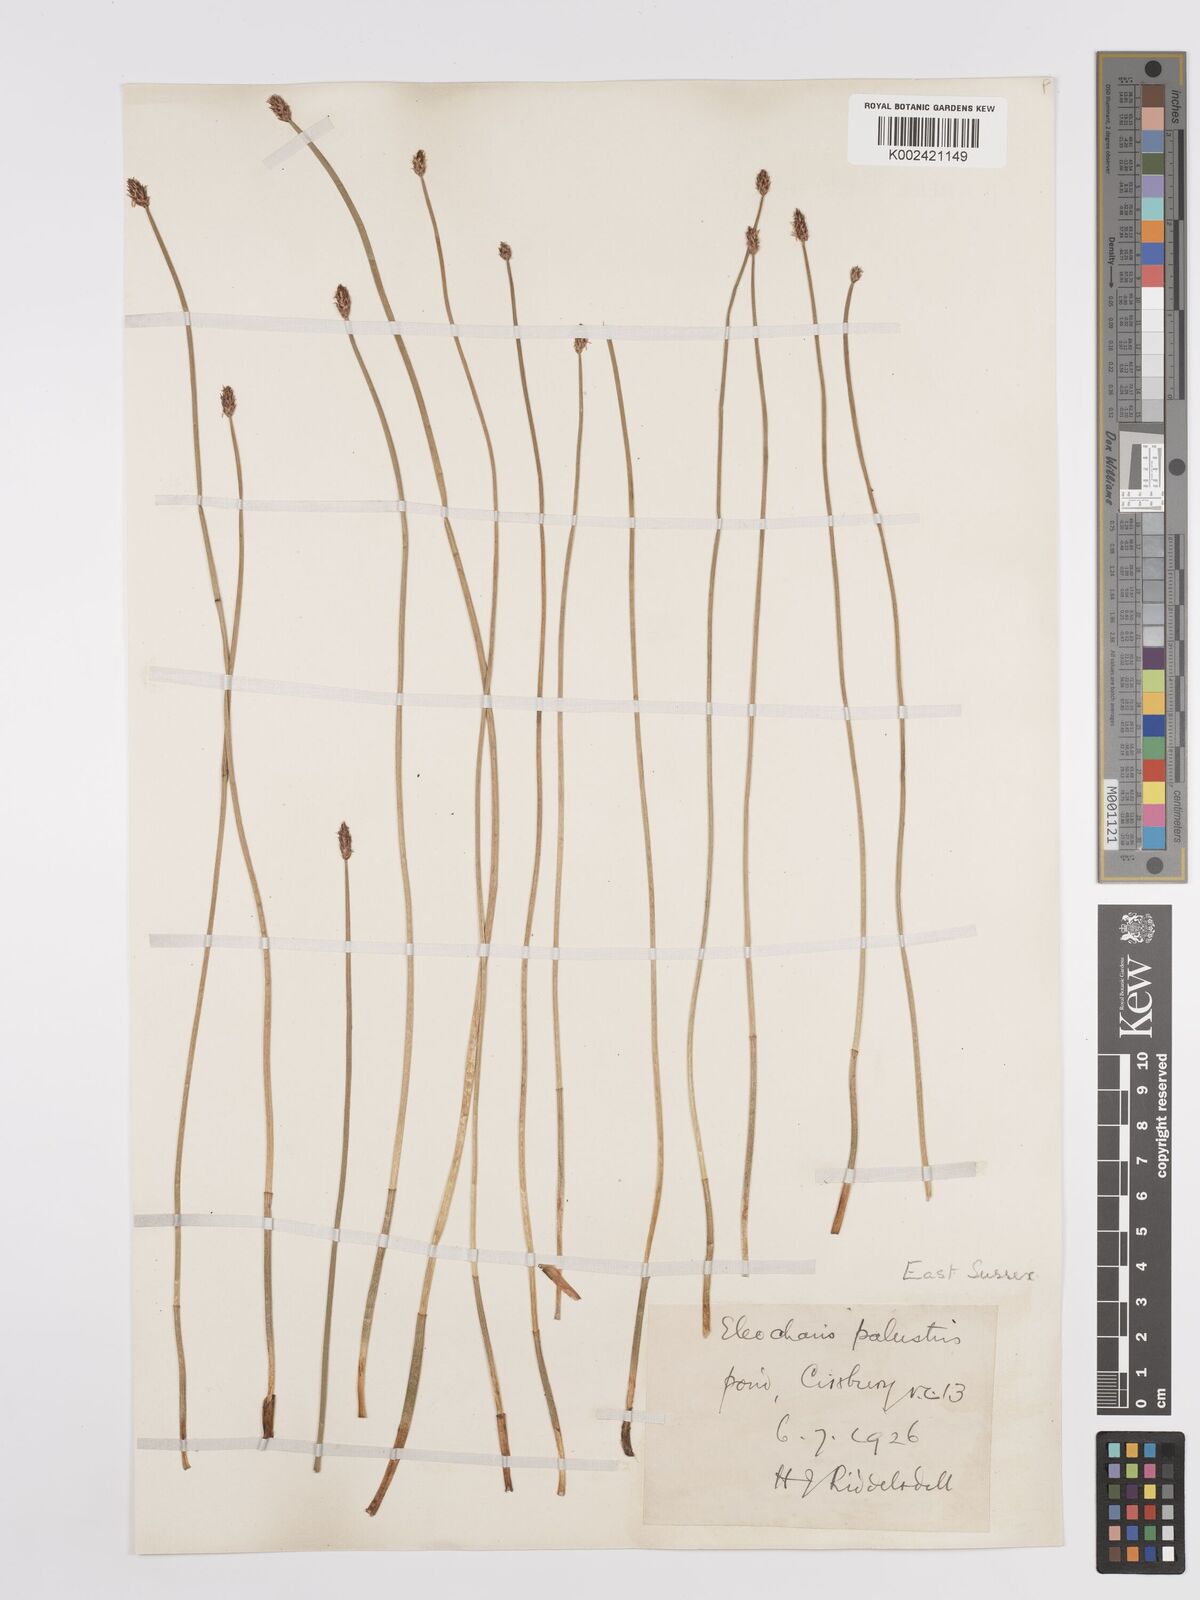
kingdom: Plantae
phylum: Tracheophyta
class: Liliopsida
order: Poales
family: Cyperaceae
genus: Eleocharis
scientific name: Eleocharis palustris
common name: Common spike-rush
